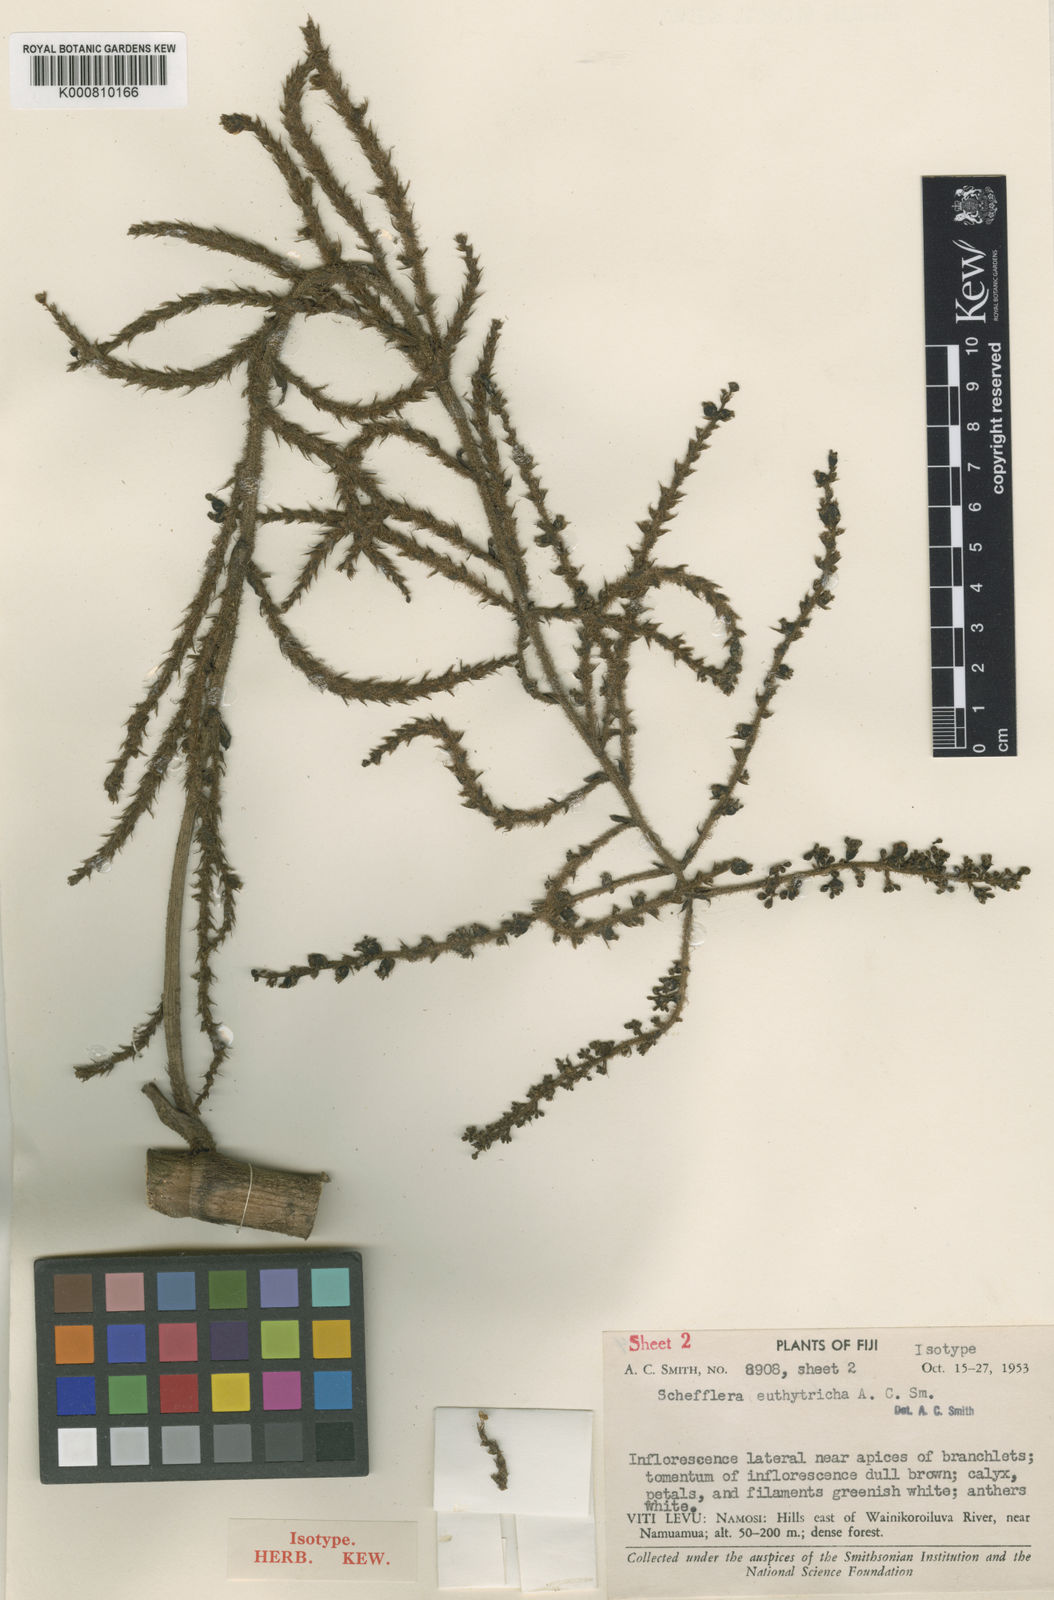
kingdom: Plantae
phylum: Tracheophyta
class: Magnoliopsida
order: Apiales
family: Araliaceae
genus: Schefflera
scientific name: Schefflera euthytricha
